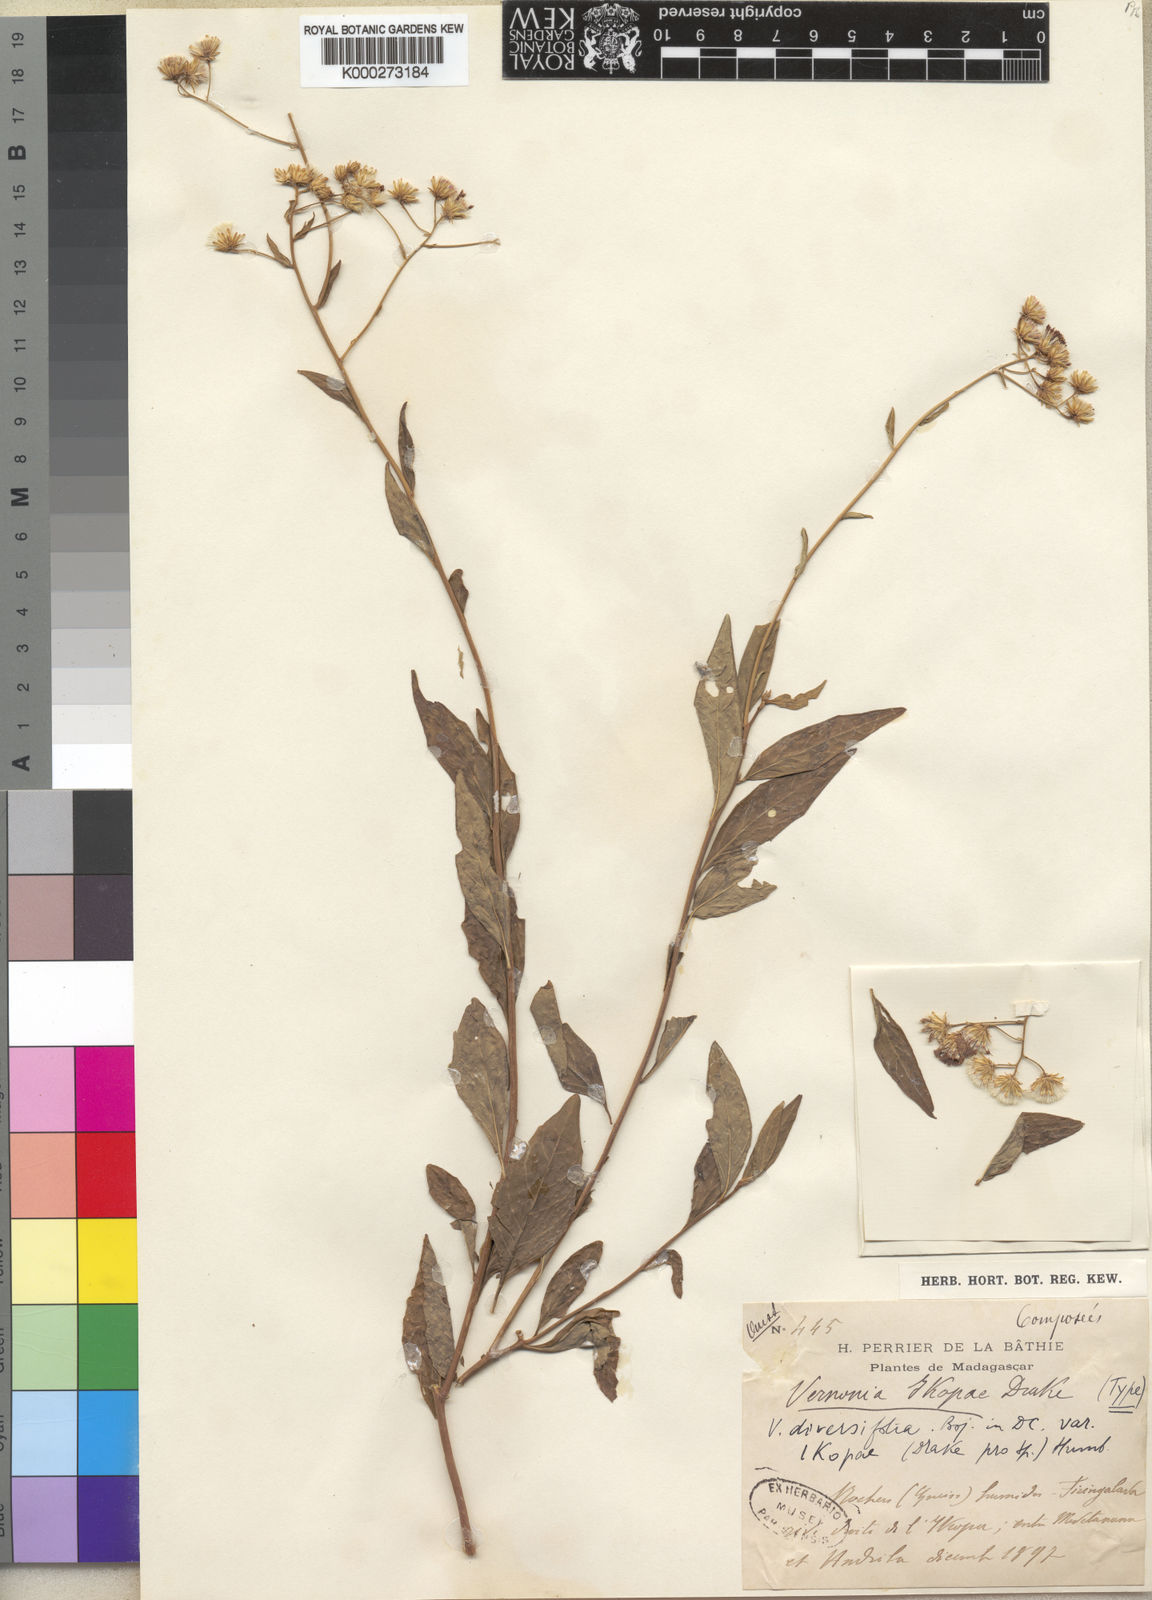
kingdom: Plantae
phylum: Tracheophyta
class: Magnoliopsida
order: Asterales
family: Asteraceae
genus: Vernonia
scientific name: Vernonia diversifolia
